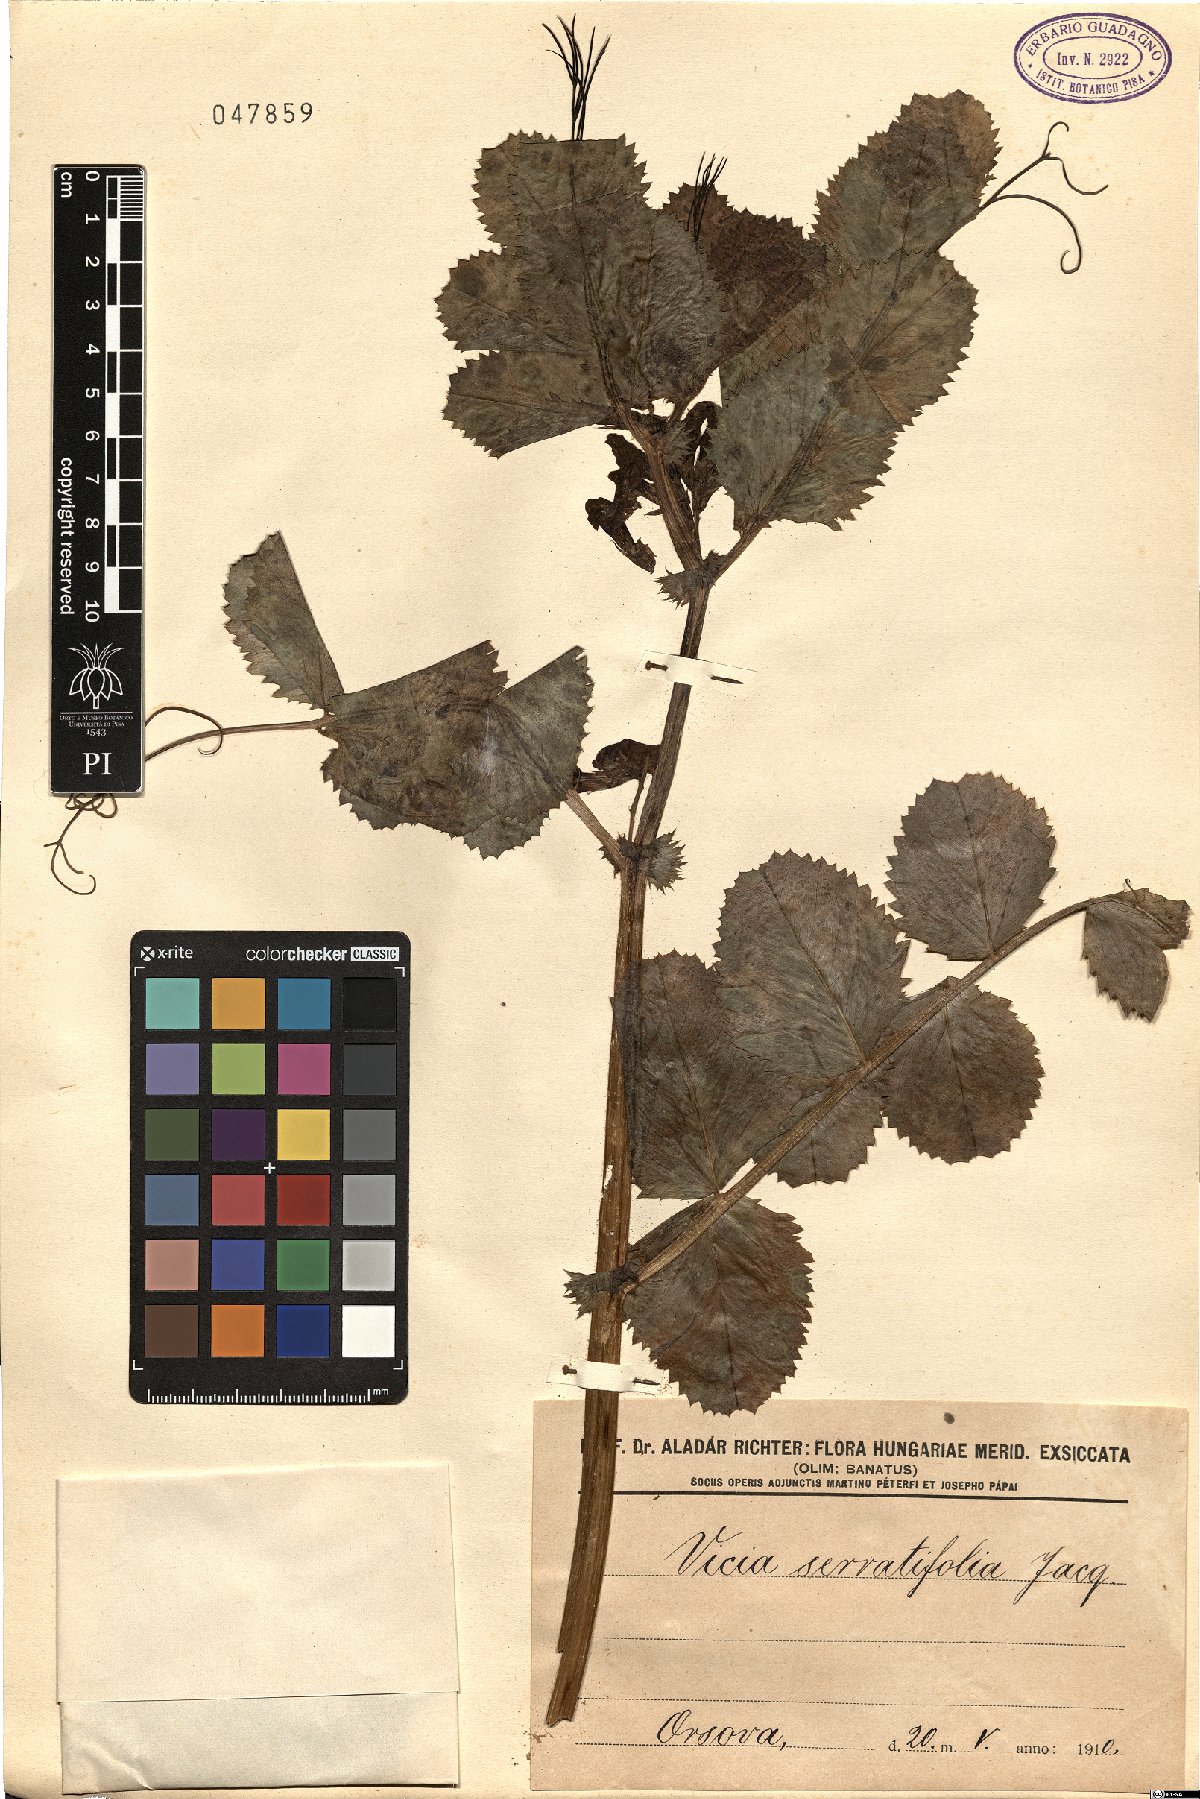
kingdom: Plantae
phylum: Tracheophyta
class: Magnoliopsida
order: Fabales
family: Fabaceae
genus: Vicia
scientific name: Vicia serratifolia
